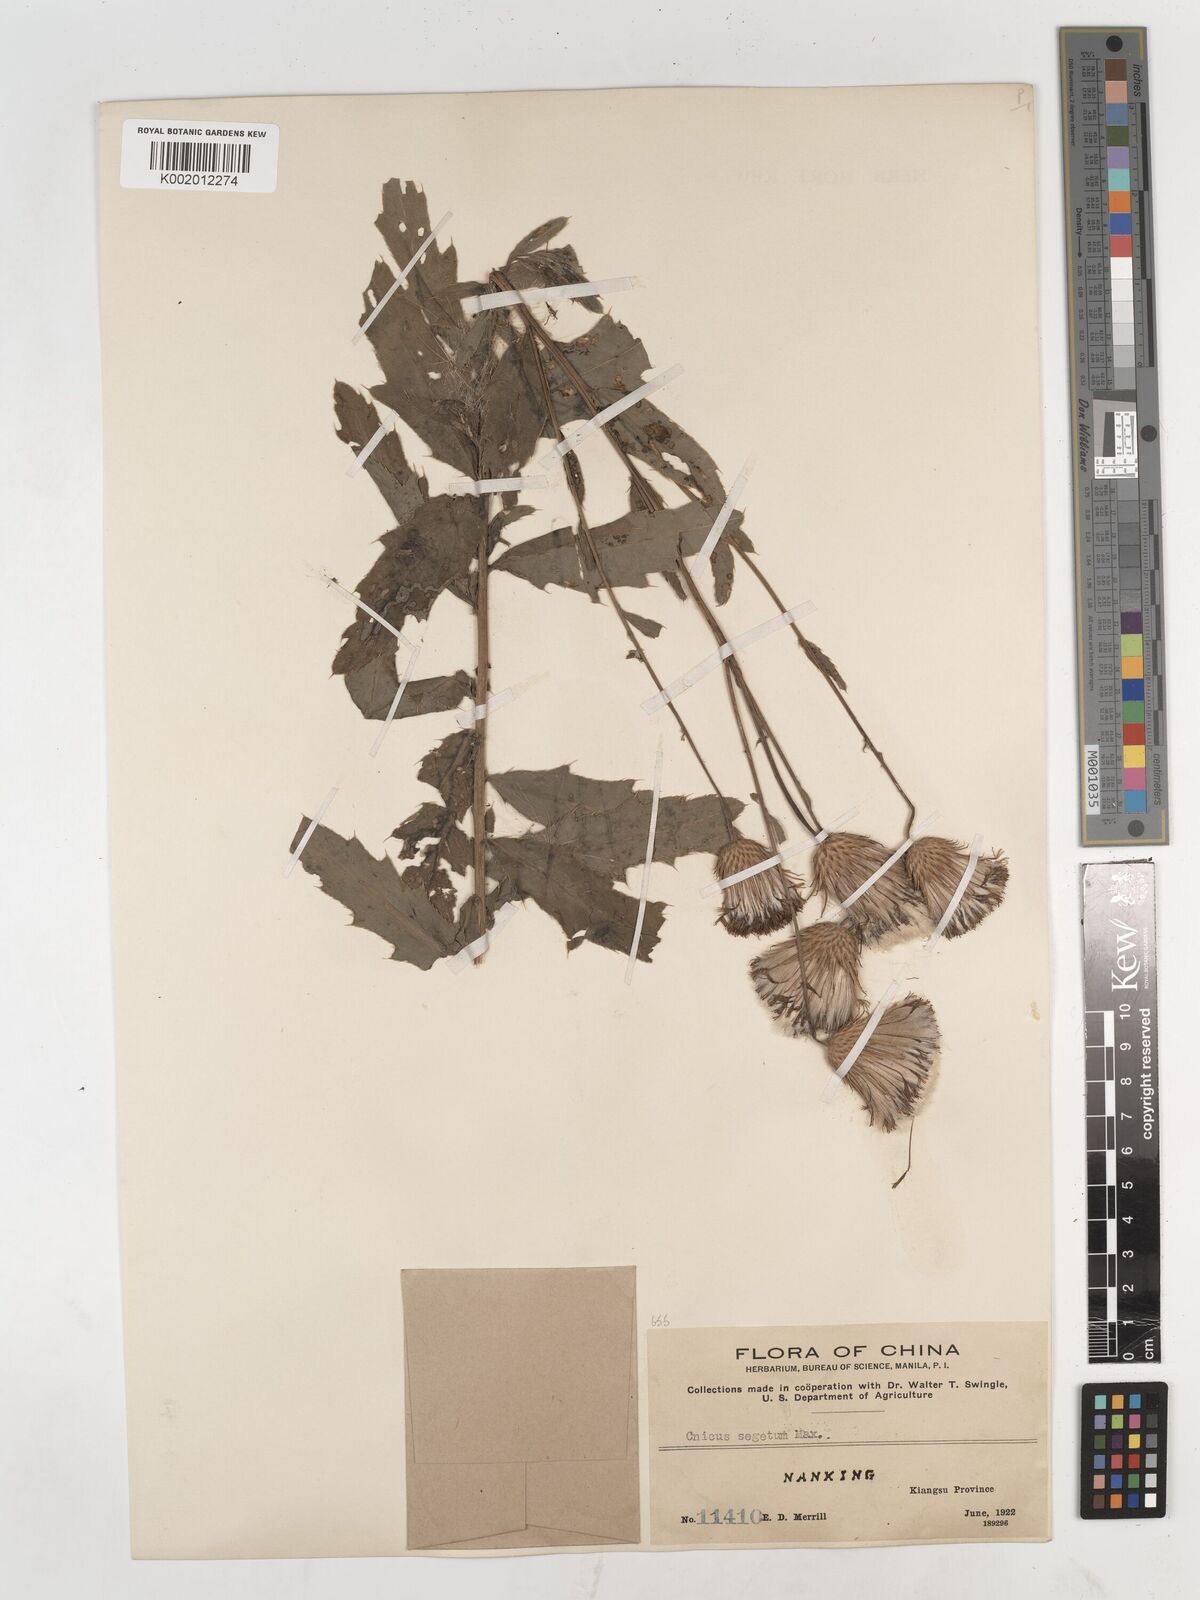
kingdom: Plantae
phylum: Tracheophyta
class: Magnoliopsida
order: Asterales
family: Asteraceae
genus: Cirsium
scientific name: Cirsium arvense
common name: Creeping thistle
